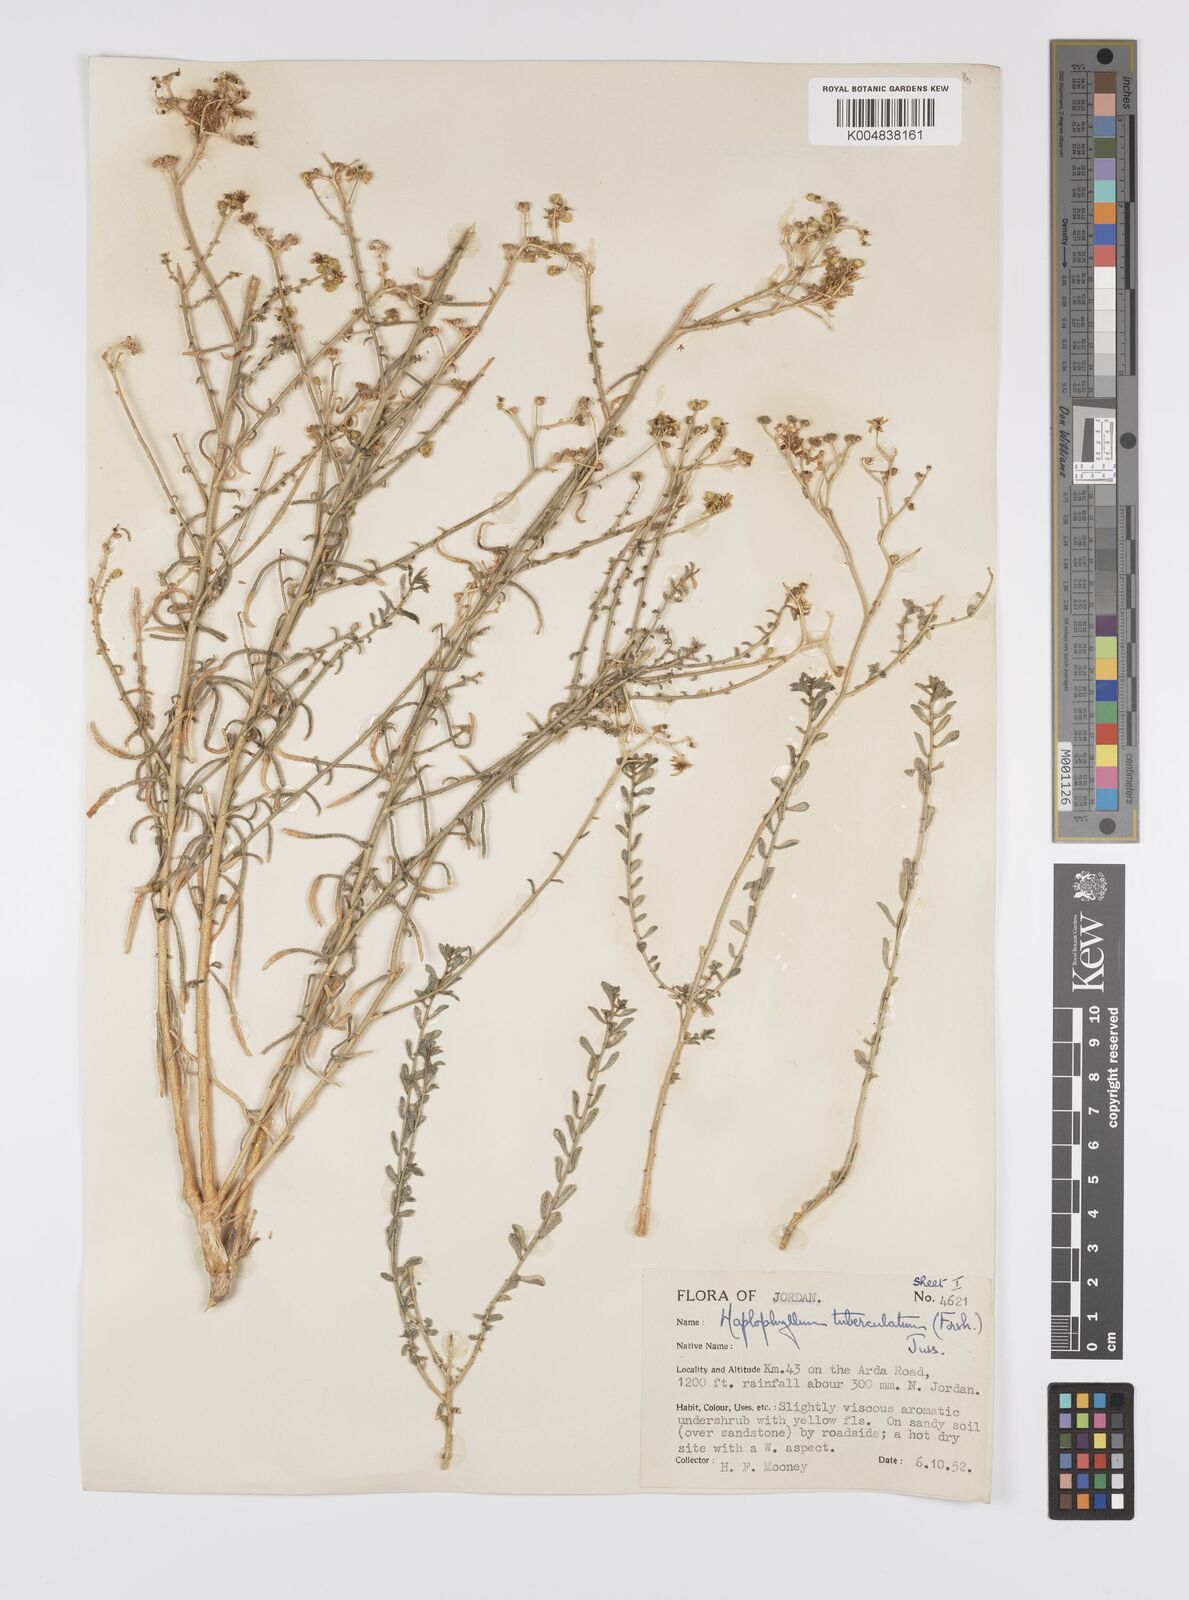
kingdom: Plantae
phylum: Tracheophyta
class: Magnoliopsida
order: Sapindales
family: Rutaceae
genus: Haplophyllum
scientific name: Haplophyllum tuberculatum
